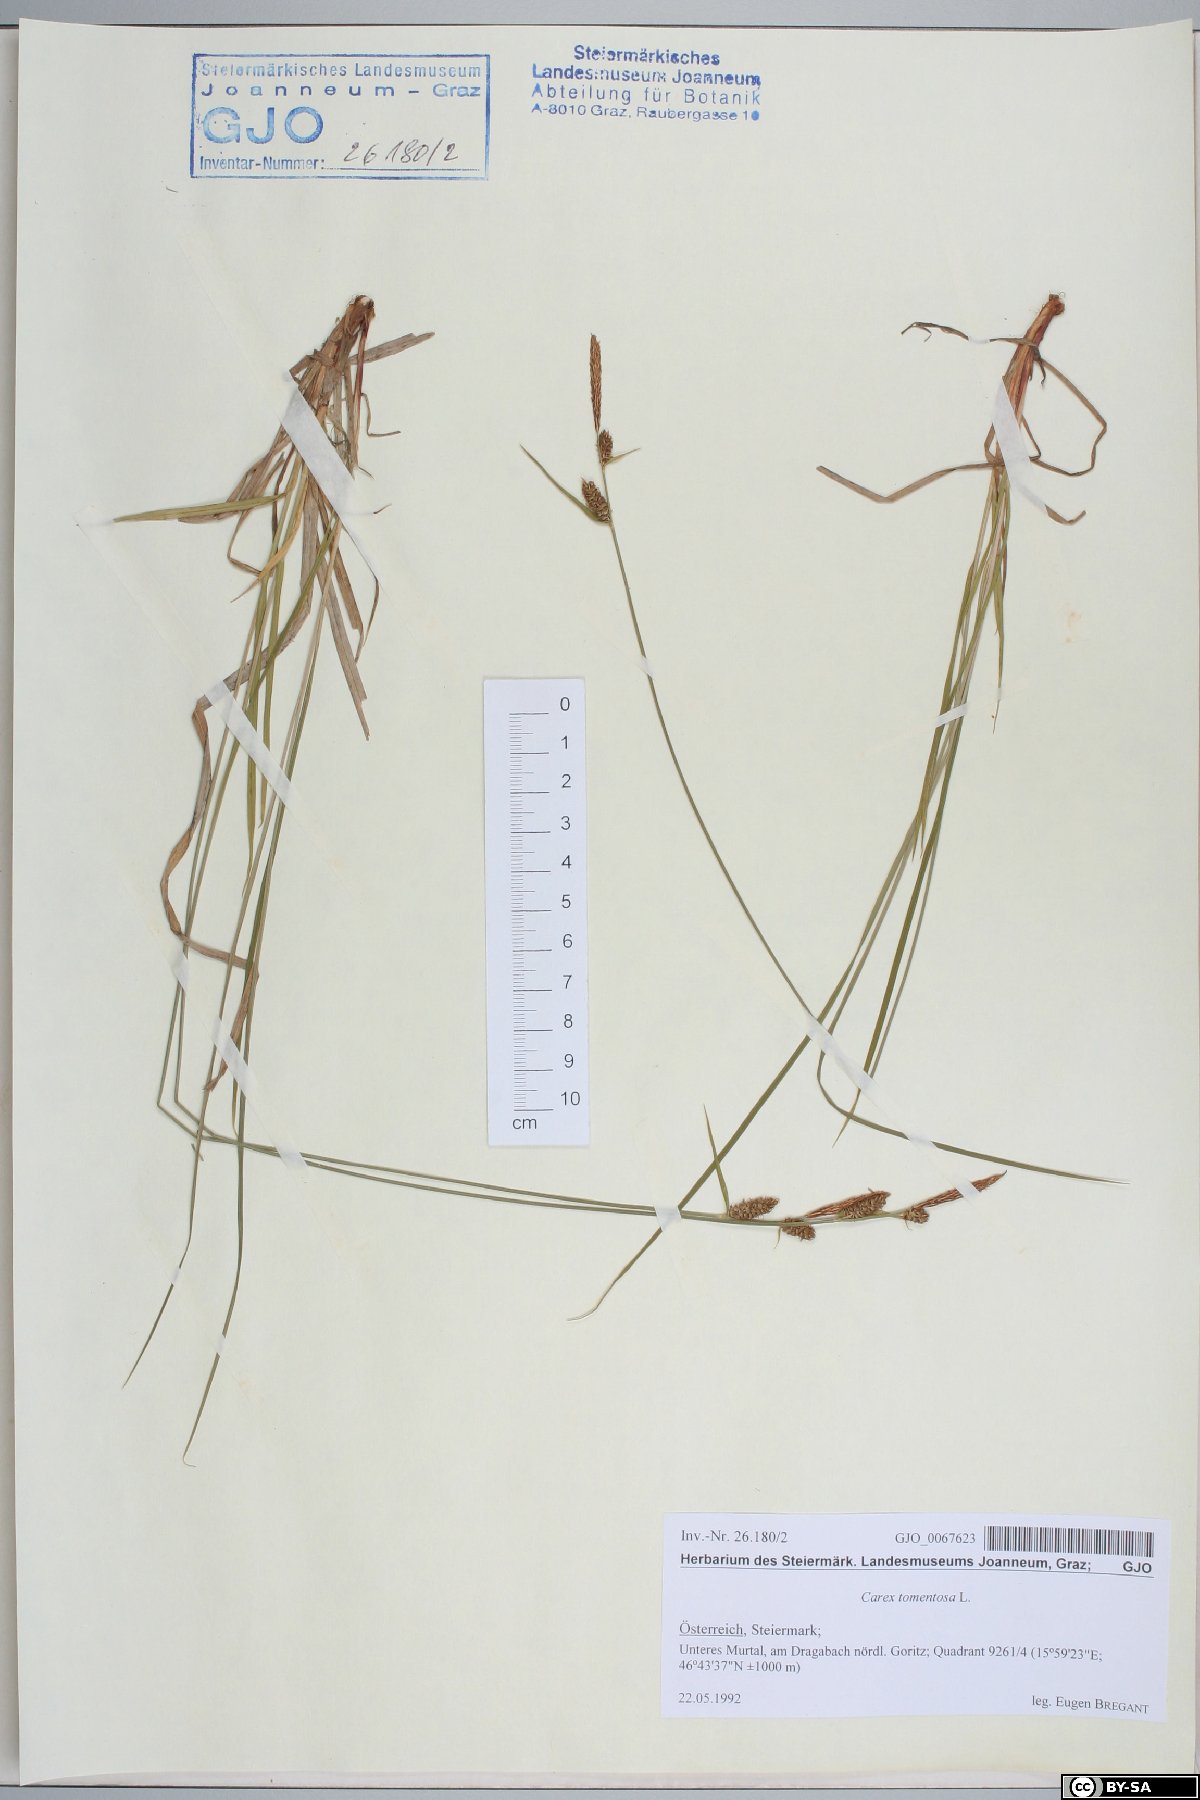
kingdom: Plantae
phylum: Tracheophyta
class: Liliopsida
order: Poales
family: Cyperaceae
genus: Carex
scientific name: Carex tomentosa
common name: Downy-fruited sedge
